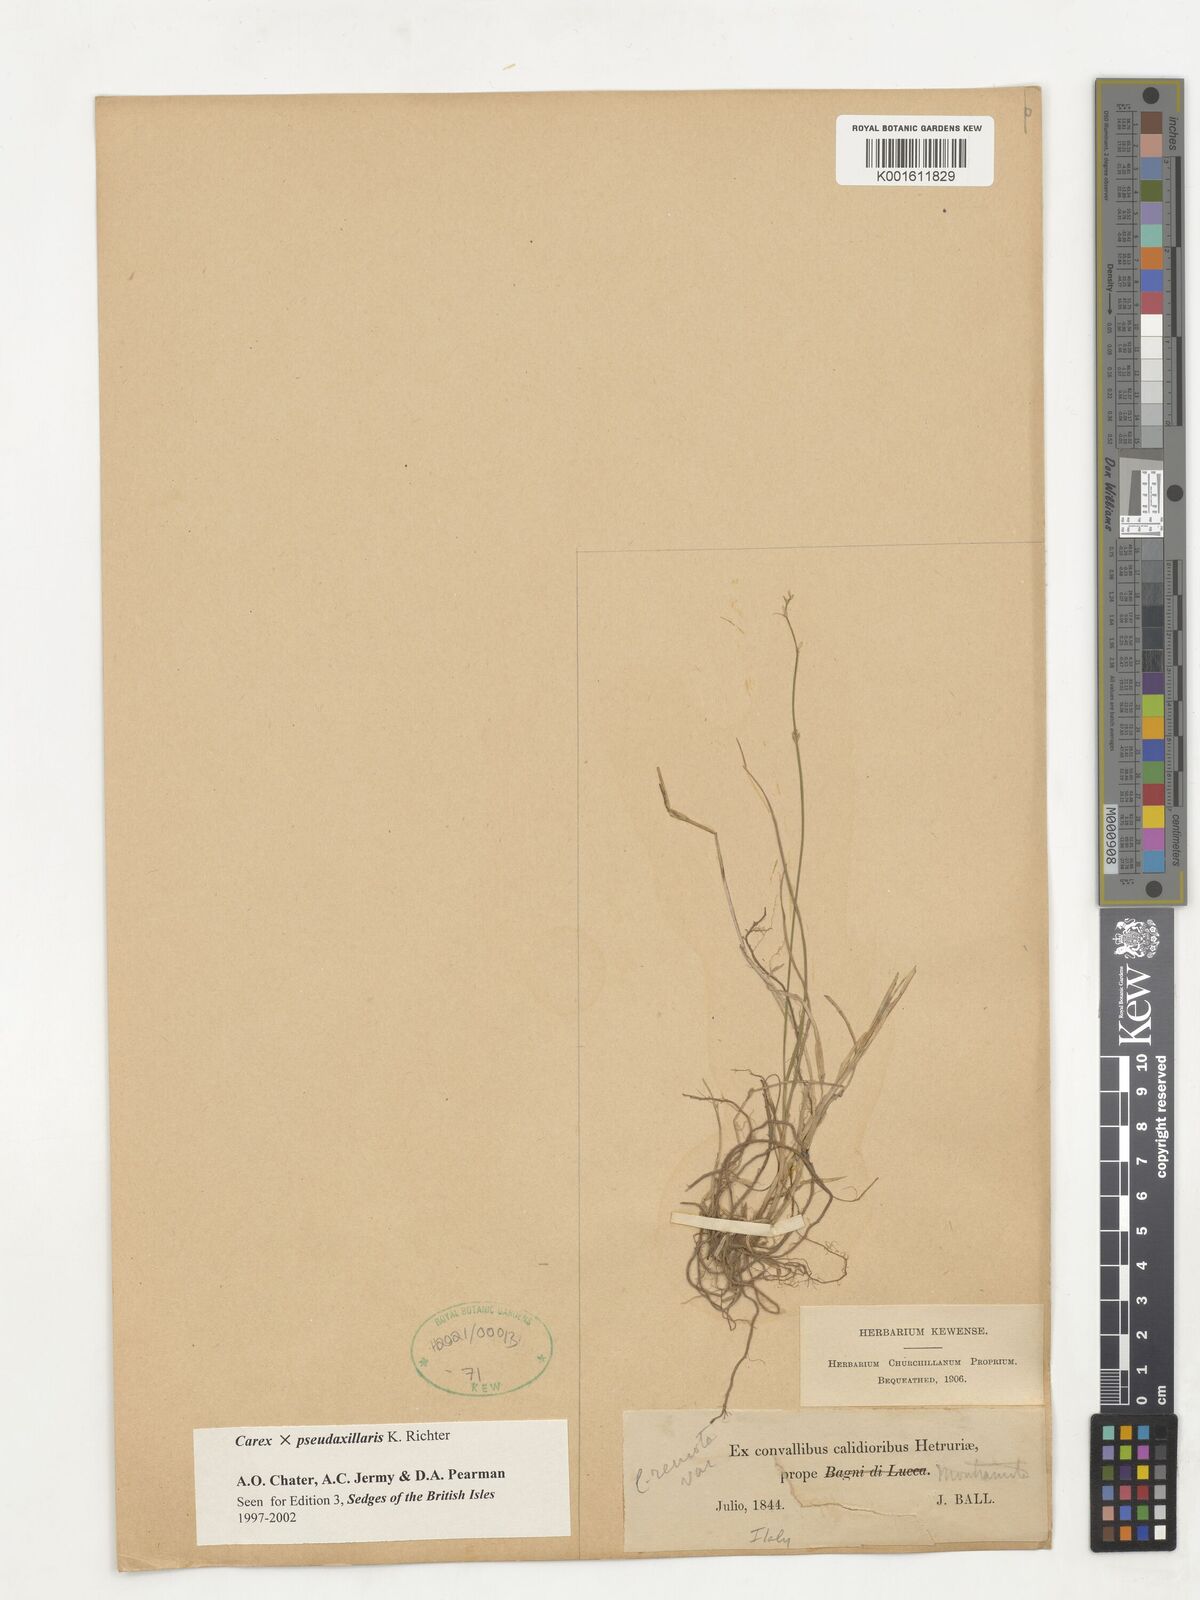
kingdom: Plantae
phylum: Tracheophyta
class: Liliopsida
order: Poales
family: Cyperaceae
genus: Carex
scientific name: Carex pseudoaxillaris
